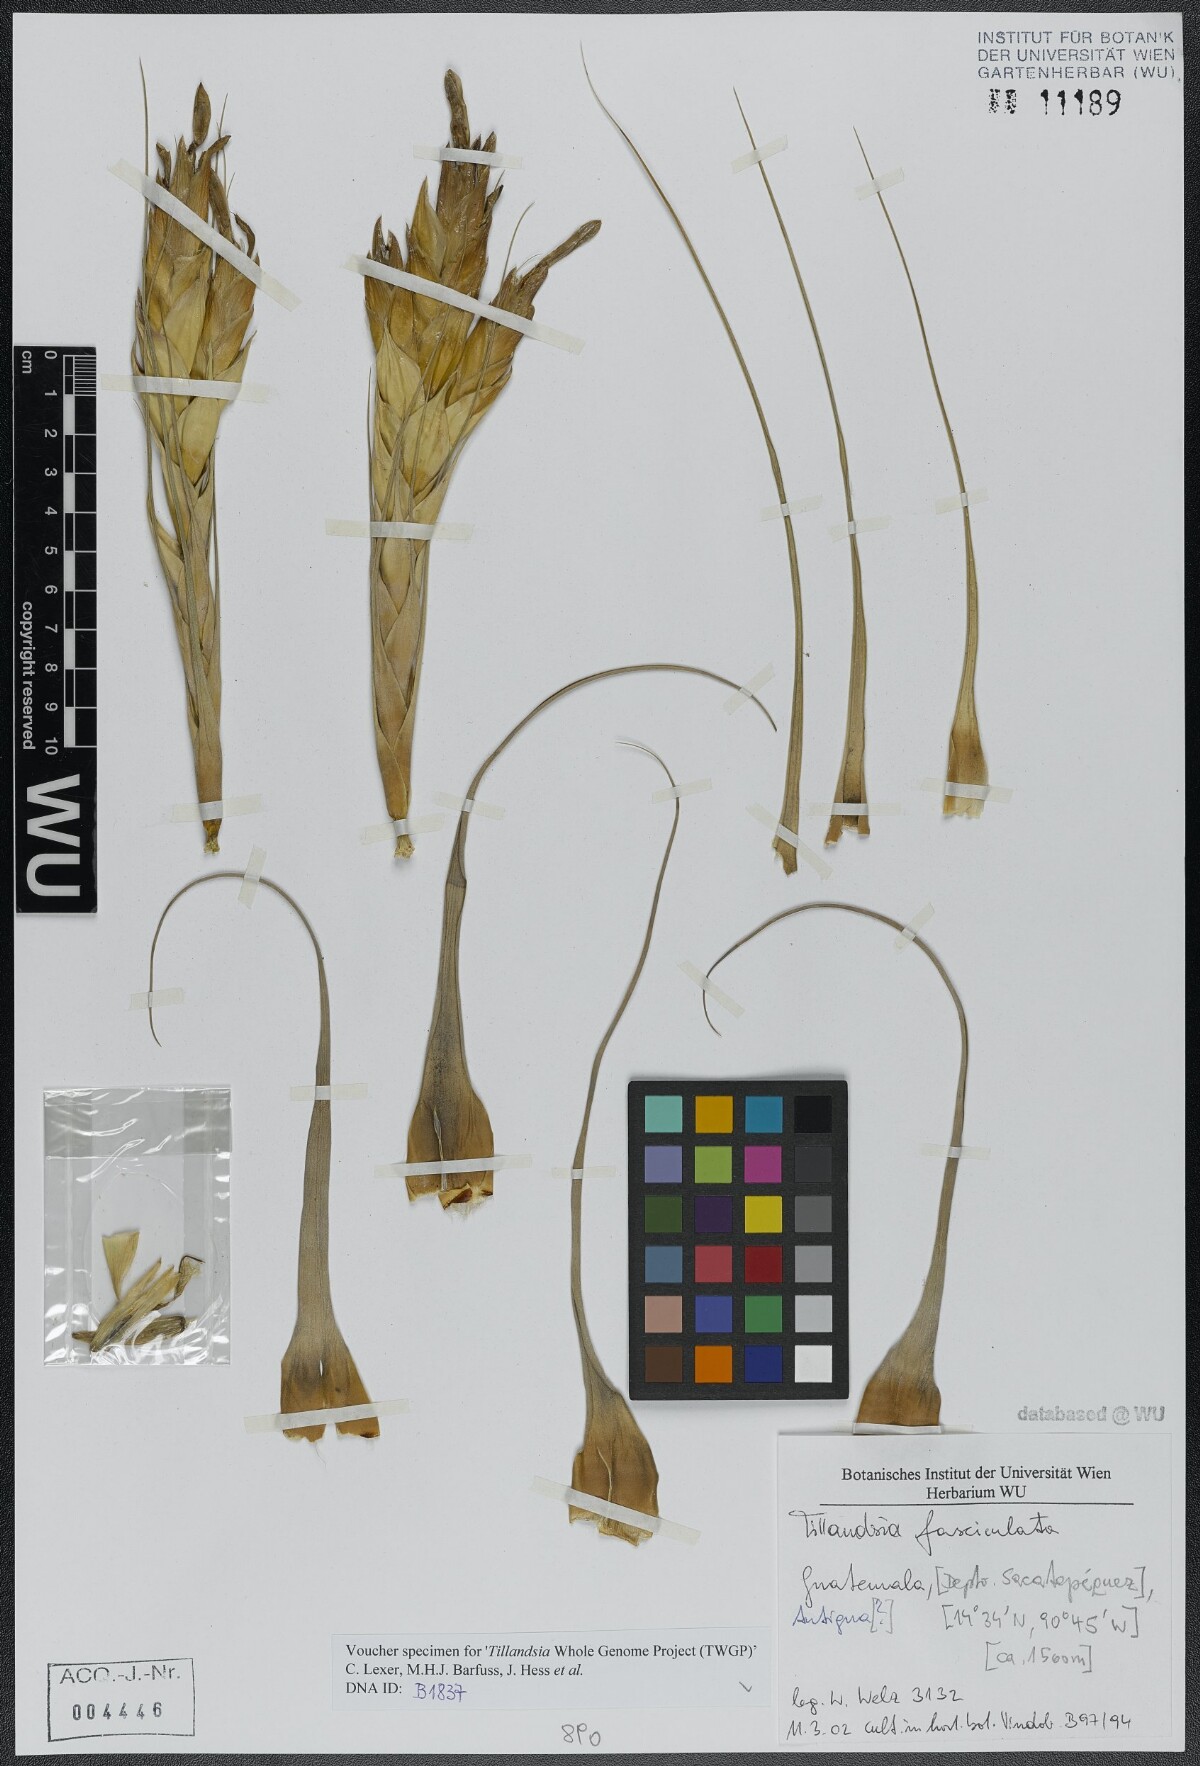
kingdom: Plantae
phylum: Tracheophyta
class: Liliopsida
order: Poales
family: Bromeliaceae
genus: Tillandsia
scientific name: Tillandsia fasciculata
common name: Giant airplant
